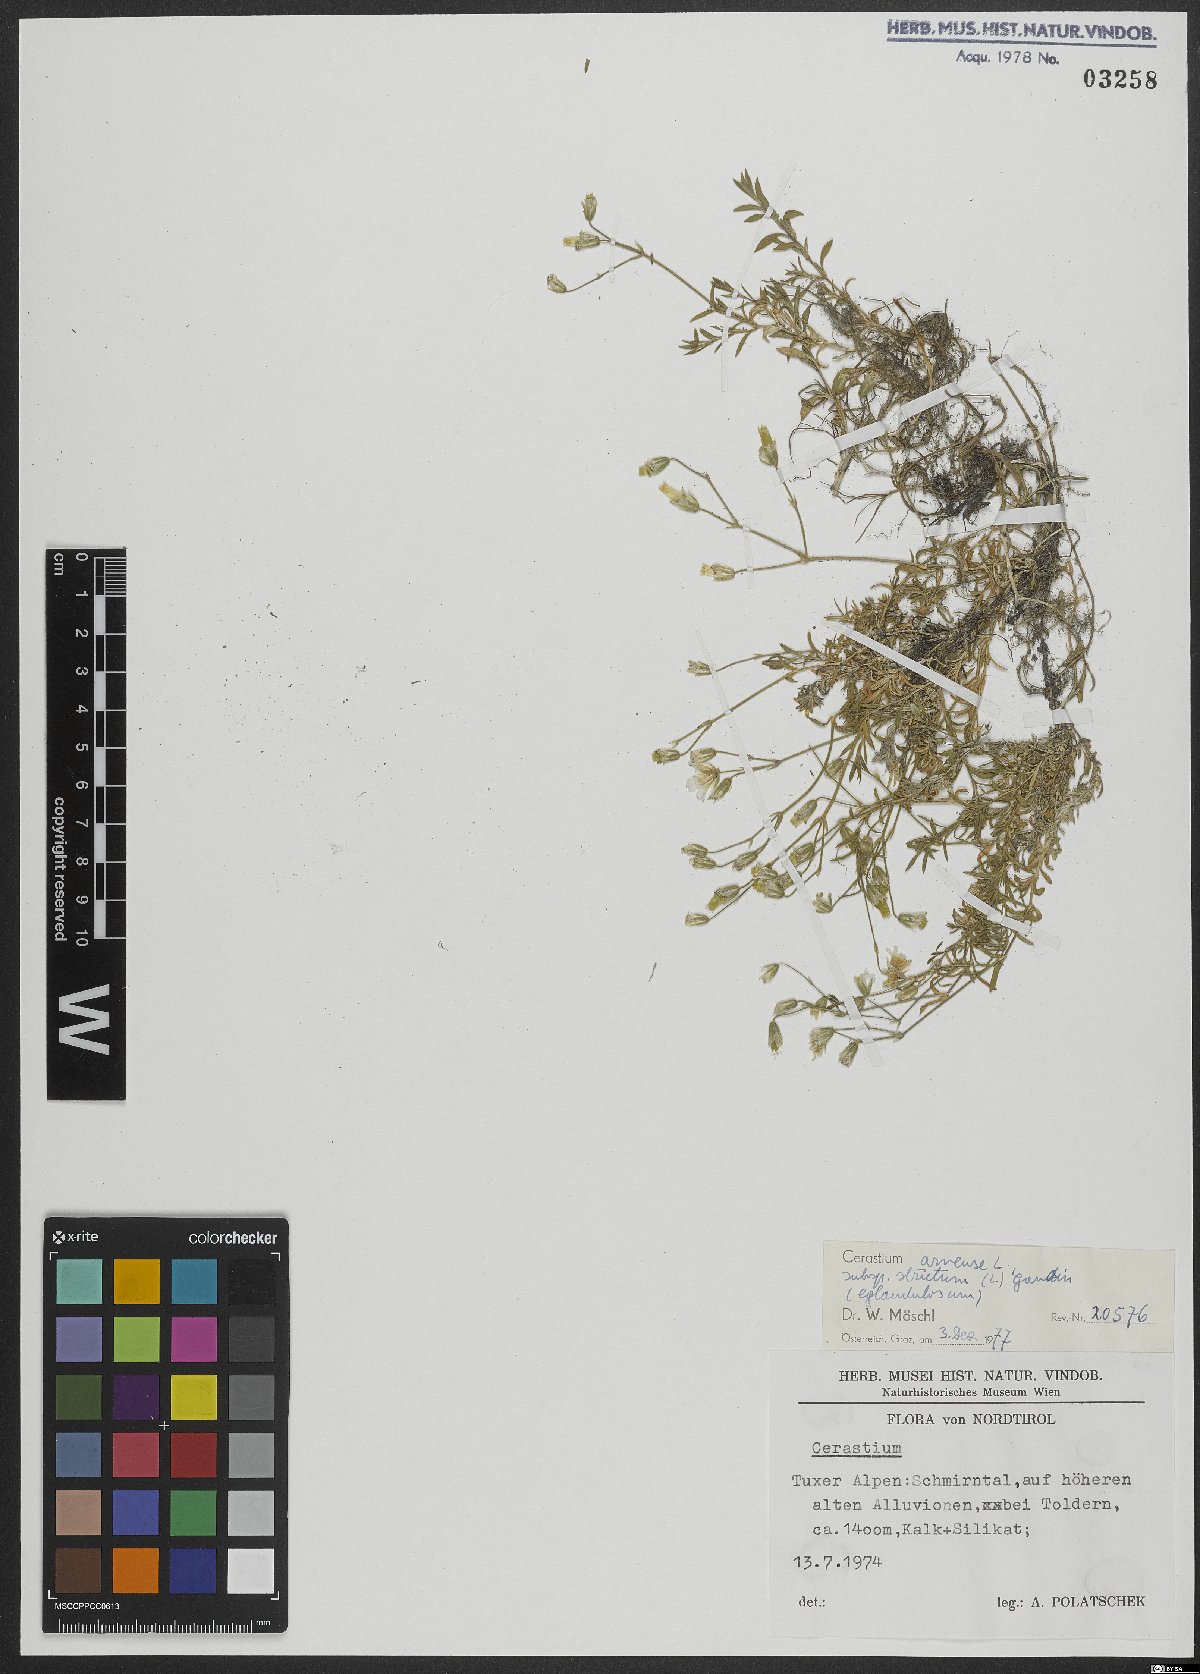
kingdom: Plantae
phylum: Tracheophyta
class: Magnoliopsida
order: Caryophyllales
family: Caryophyllaceae
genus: Cerastium
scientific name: Cerastium elongatum
